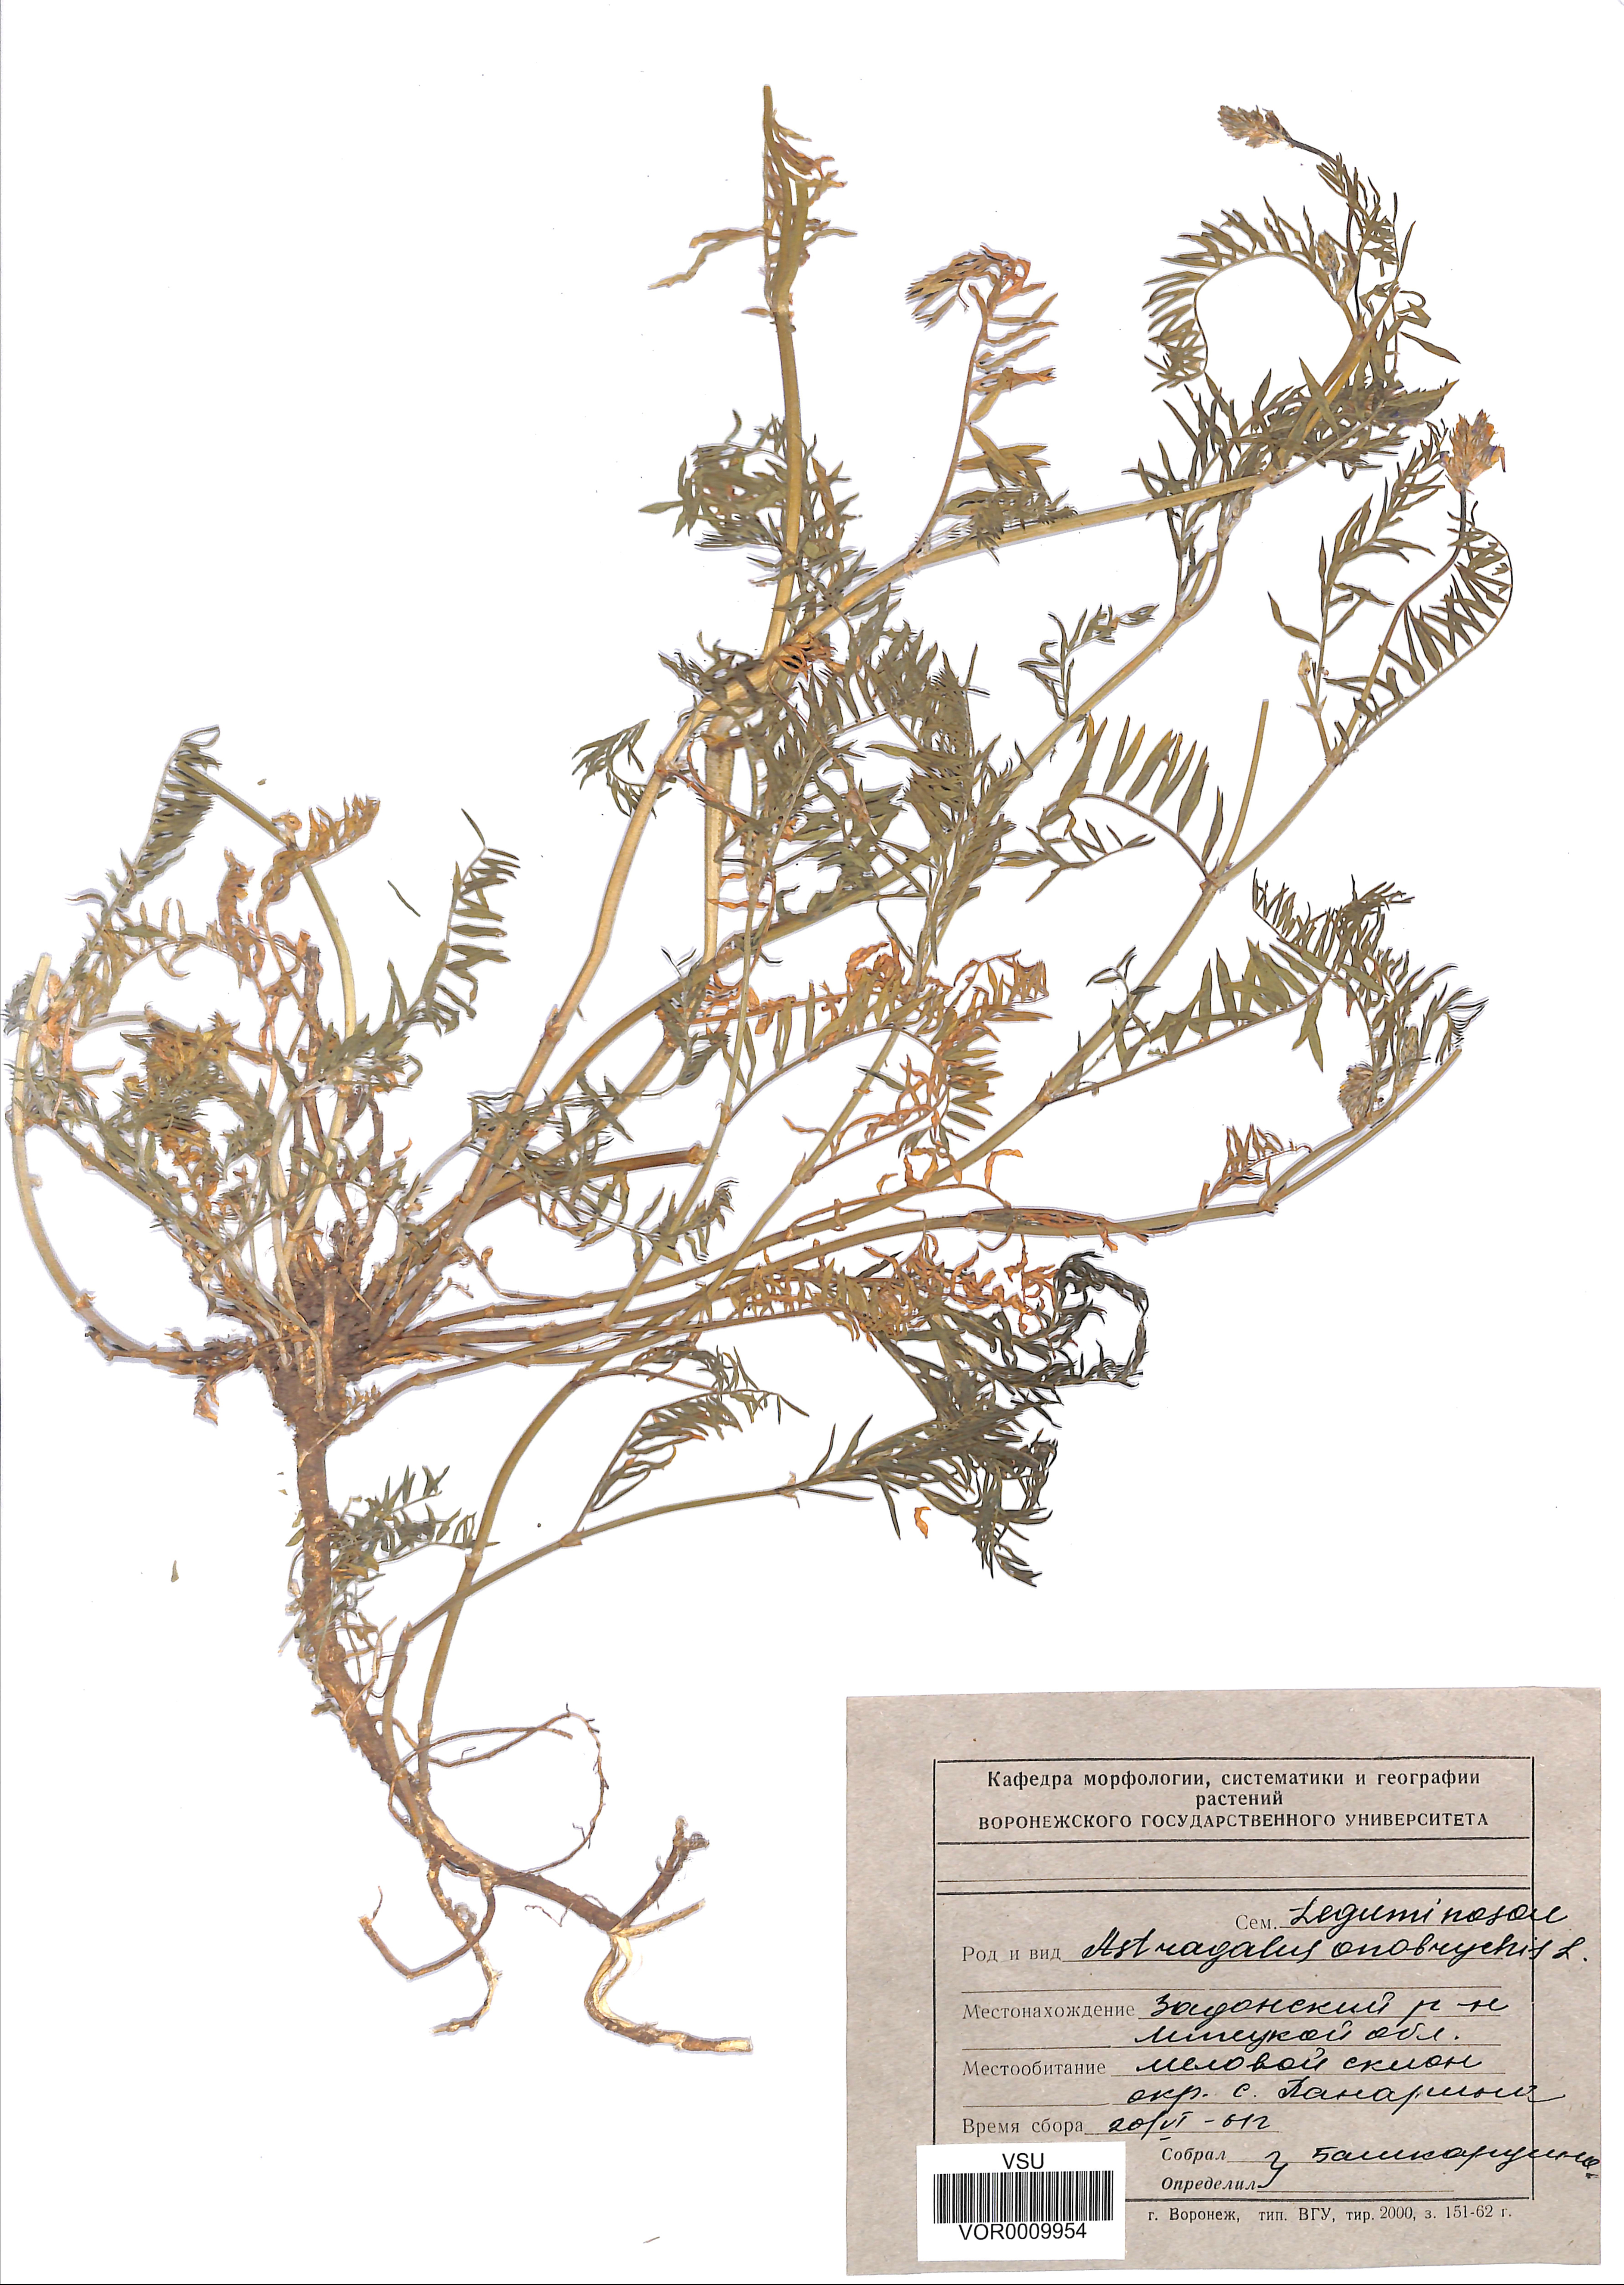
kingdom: Plantae
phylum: Tracheophyta
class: Magnoliopsida
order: Fabales
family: Fabaceae
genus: Astragalus
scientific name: Astragalus onobrychis
